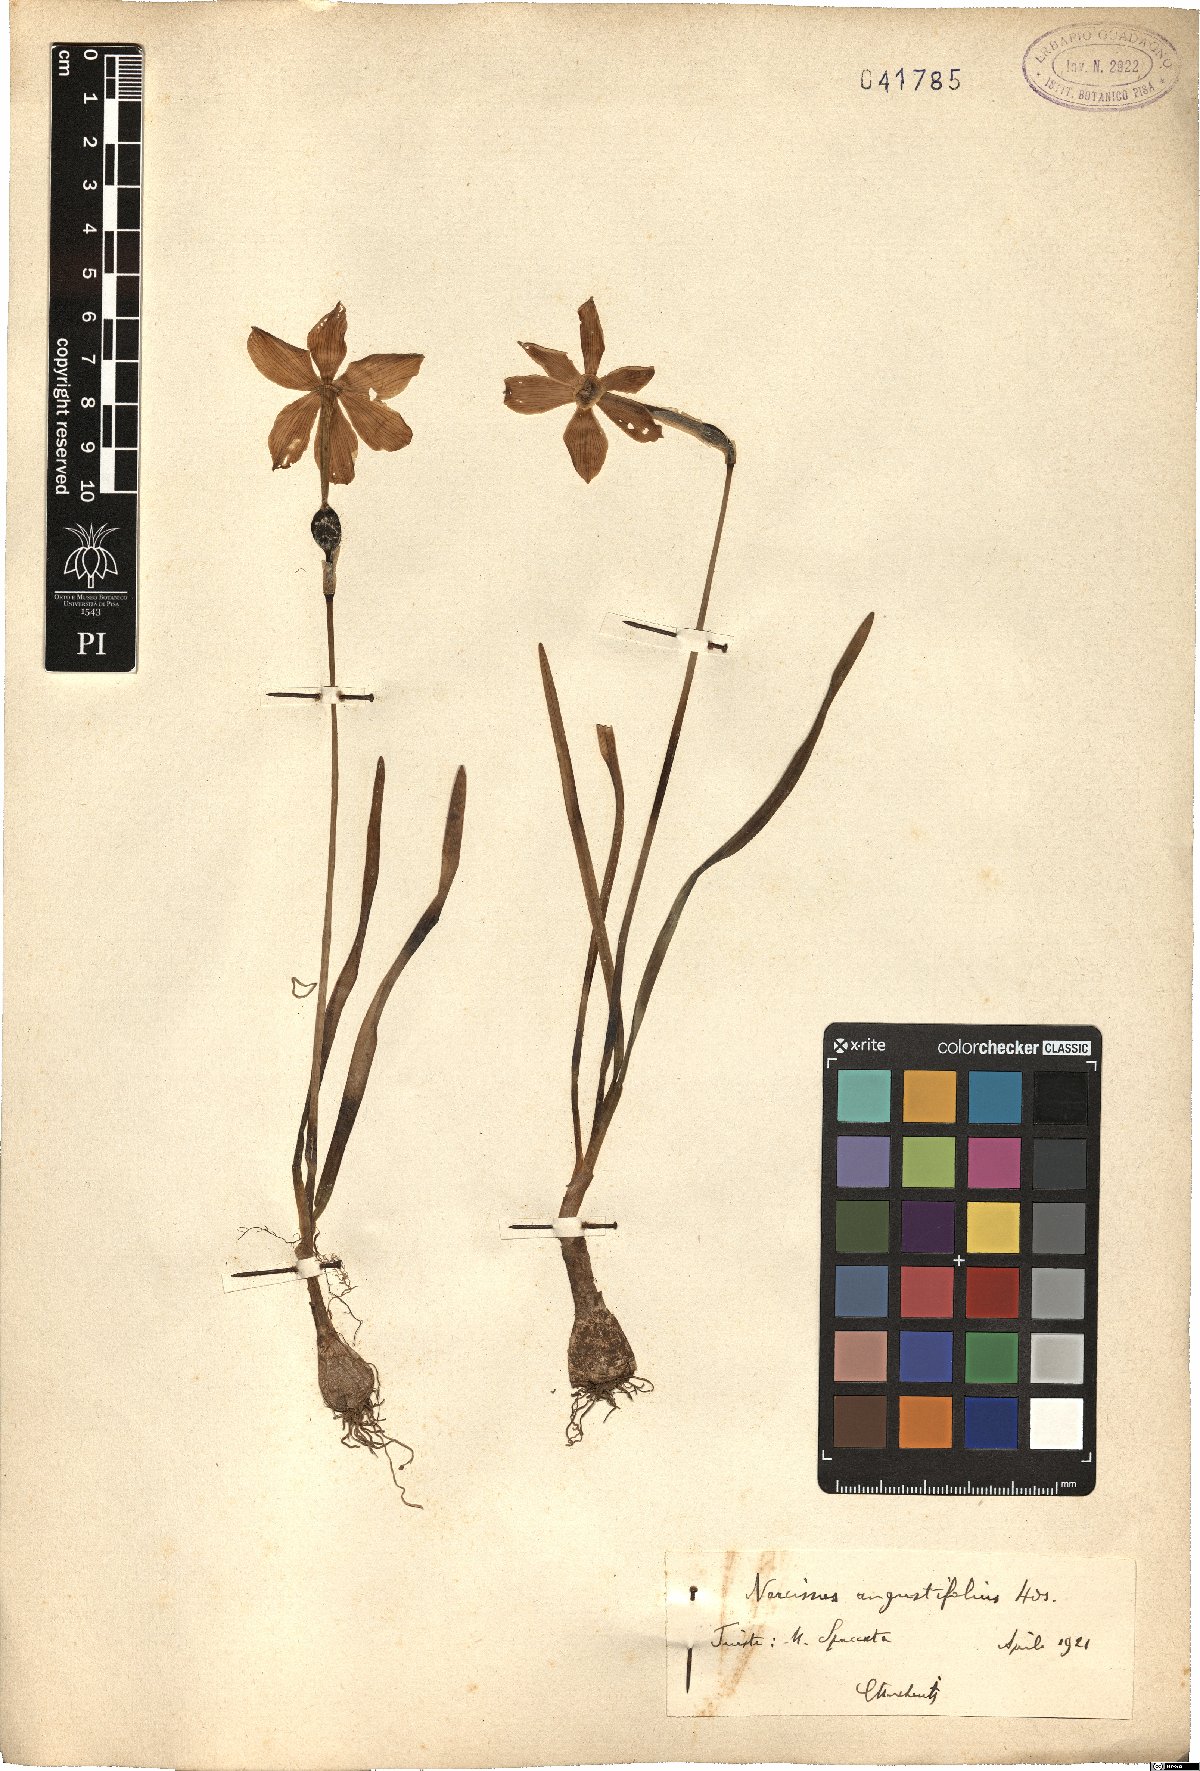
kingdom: Plantae
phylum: Tracheophyta
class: Liliopsida
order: Asparagales
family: Amaryllidaceae
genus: Narcissus
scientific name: Narcissus poeticus
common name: Pheasant's-eye daffodil
